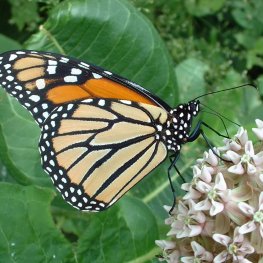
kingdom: Animalia
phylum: Arthropoda
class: Insecta
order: Lepidoptera
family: Nymphalidae
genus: Danaus
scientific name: Danaus plexippus
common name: Monarch
